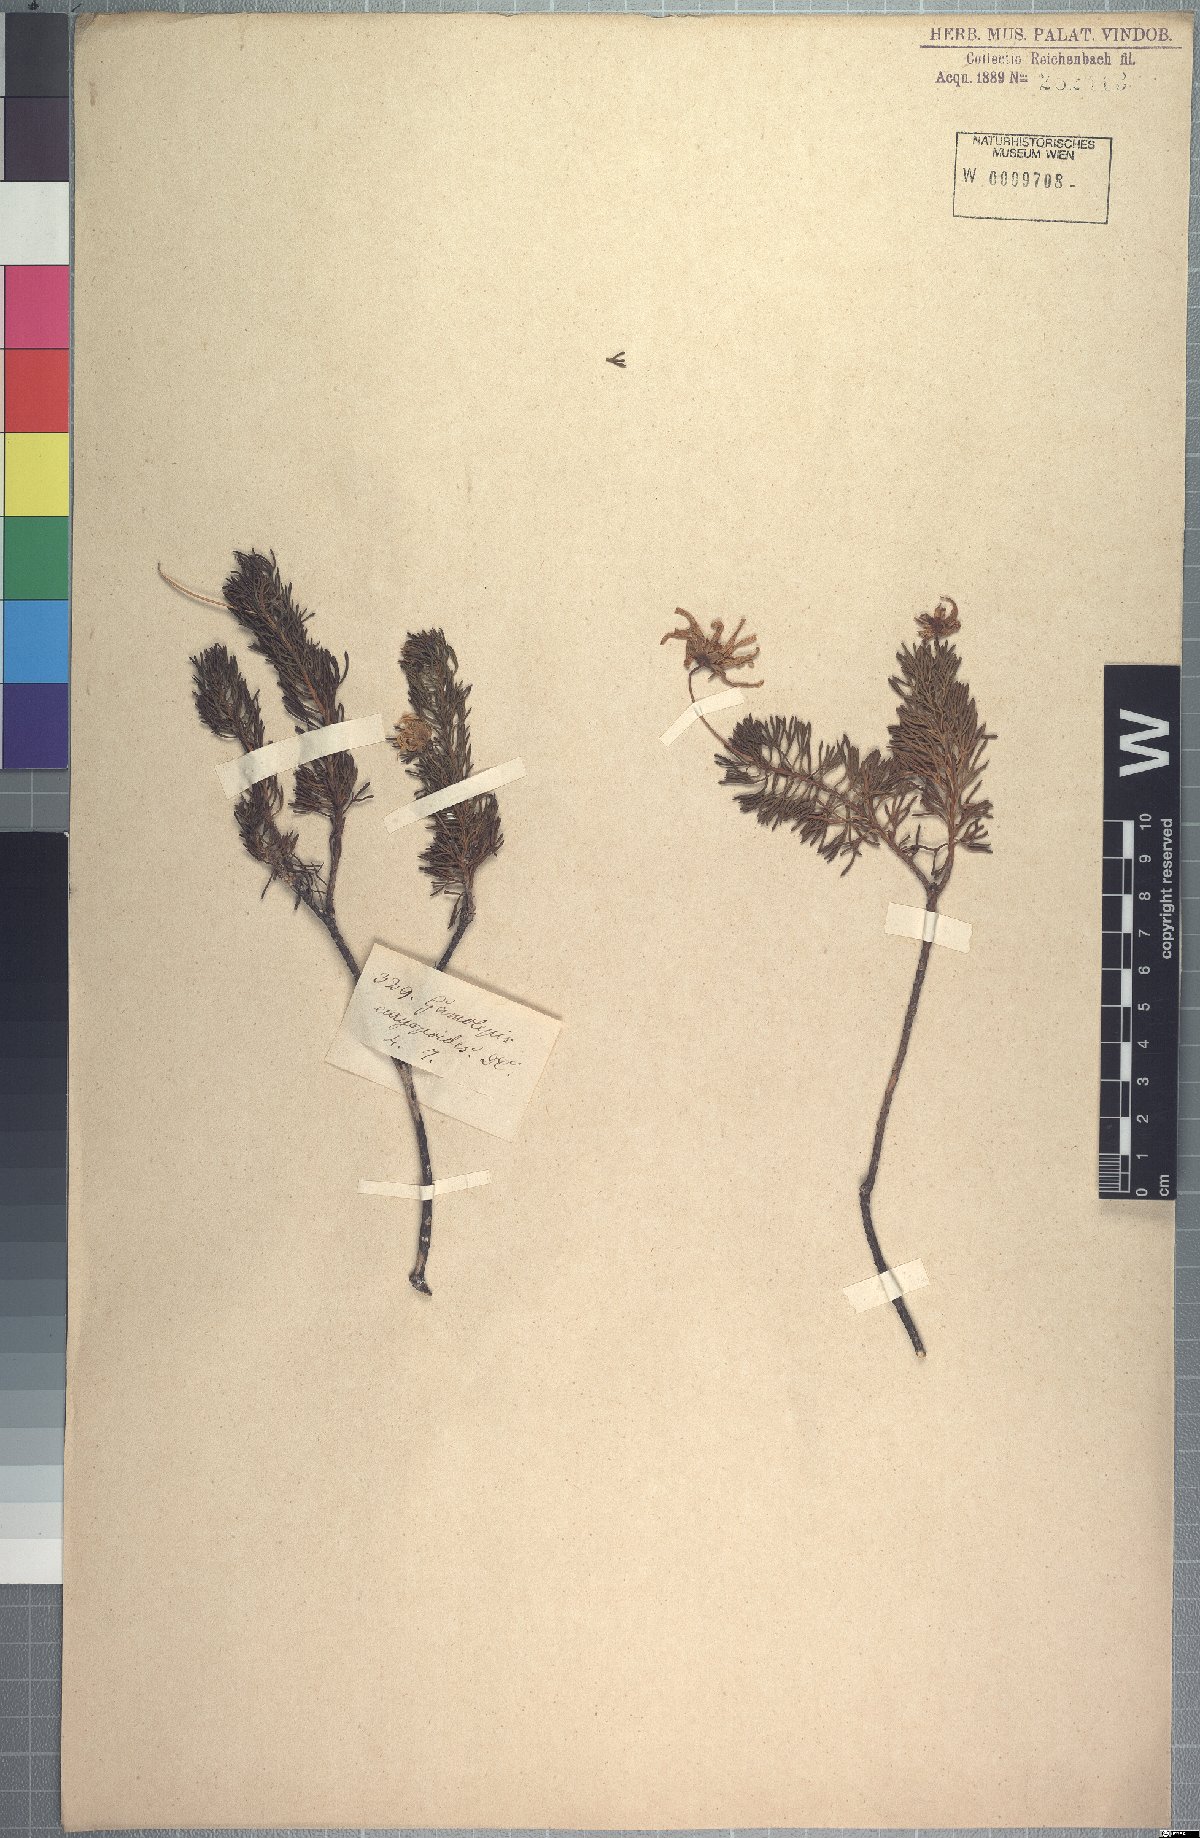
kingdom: Plantae
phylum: Tracheophyta
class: Magnoliopsida
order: Asterales
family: Asteraceae
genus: Euryops
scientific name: Euryops euryopoides
